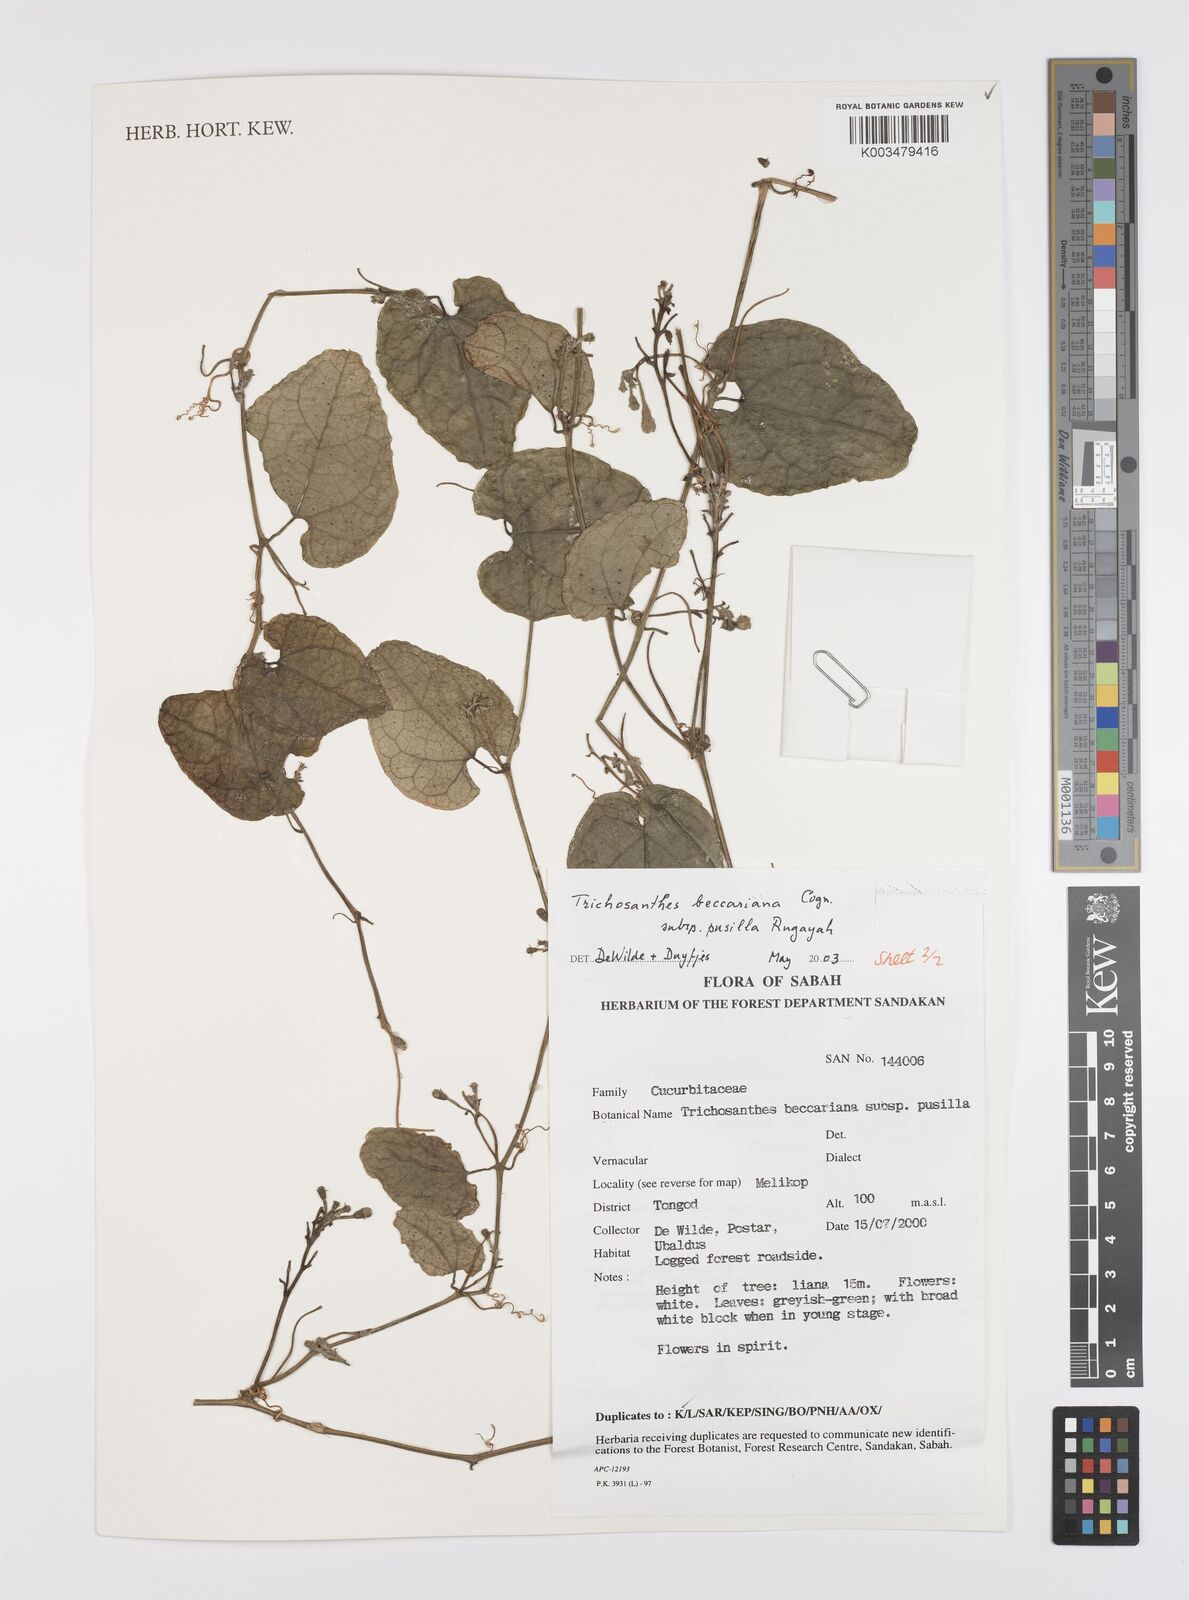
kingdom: Plantae
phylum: Tracheophyta
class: Magnoliopsida
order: Cucurbitales
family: Cucurbitaceae
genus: Trichosanthes
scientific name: Trichosanthes beccariana
